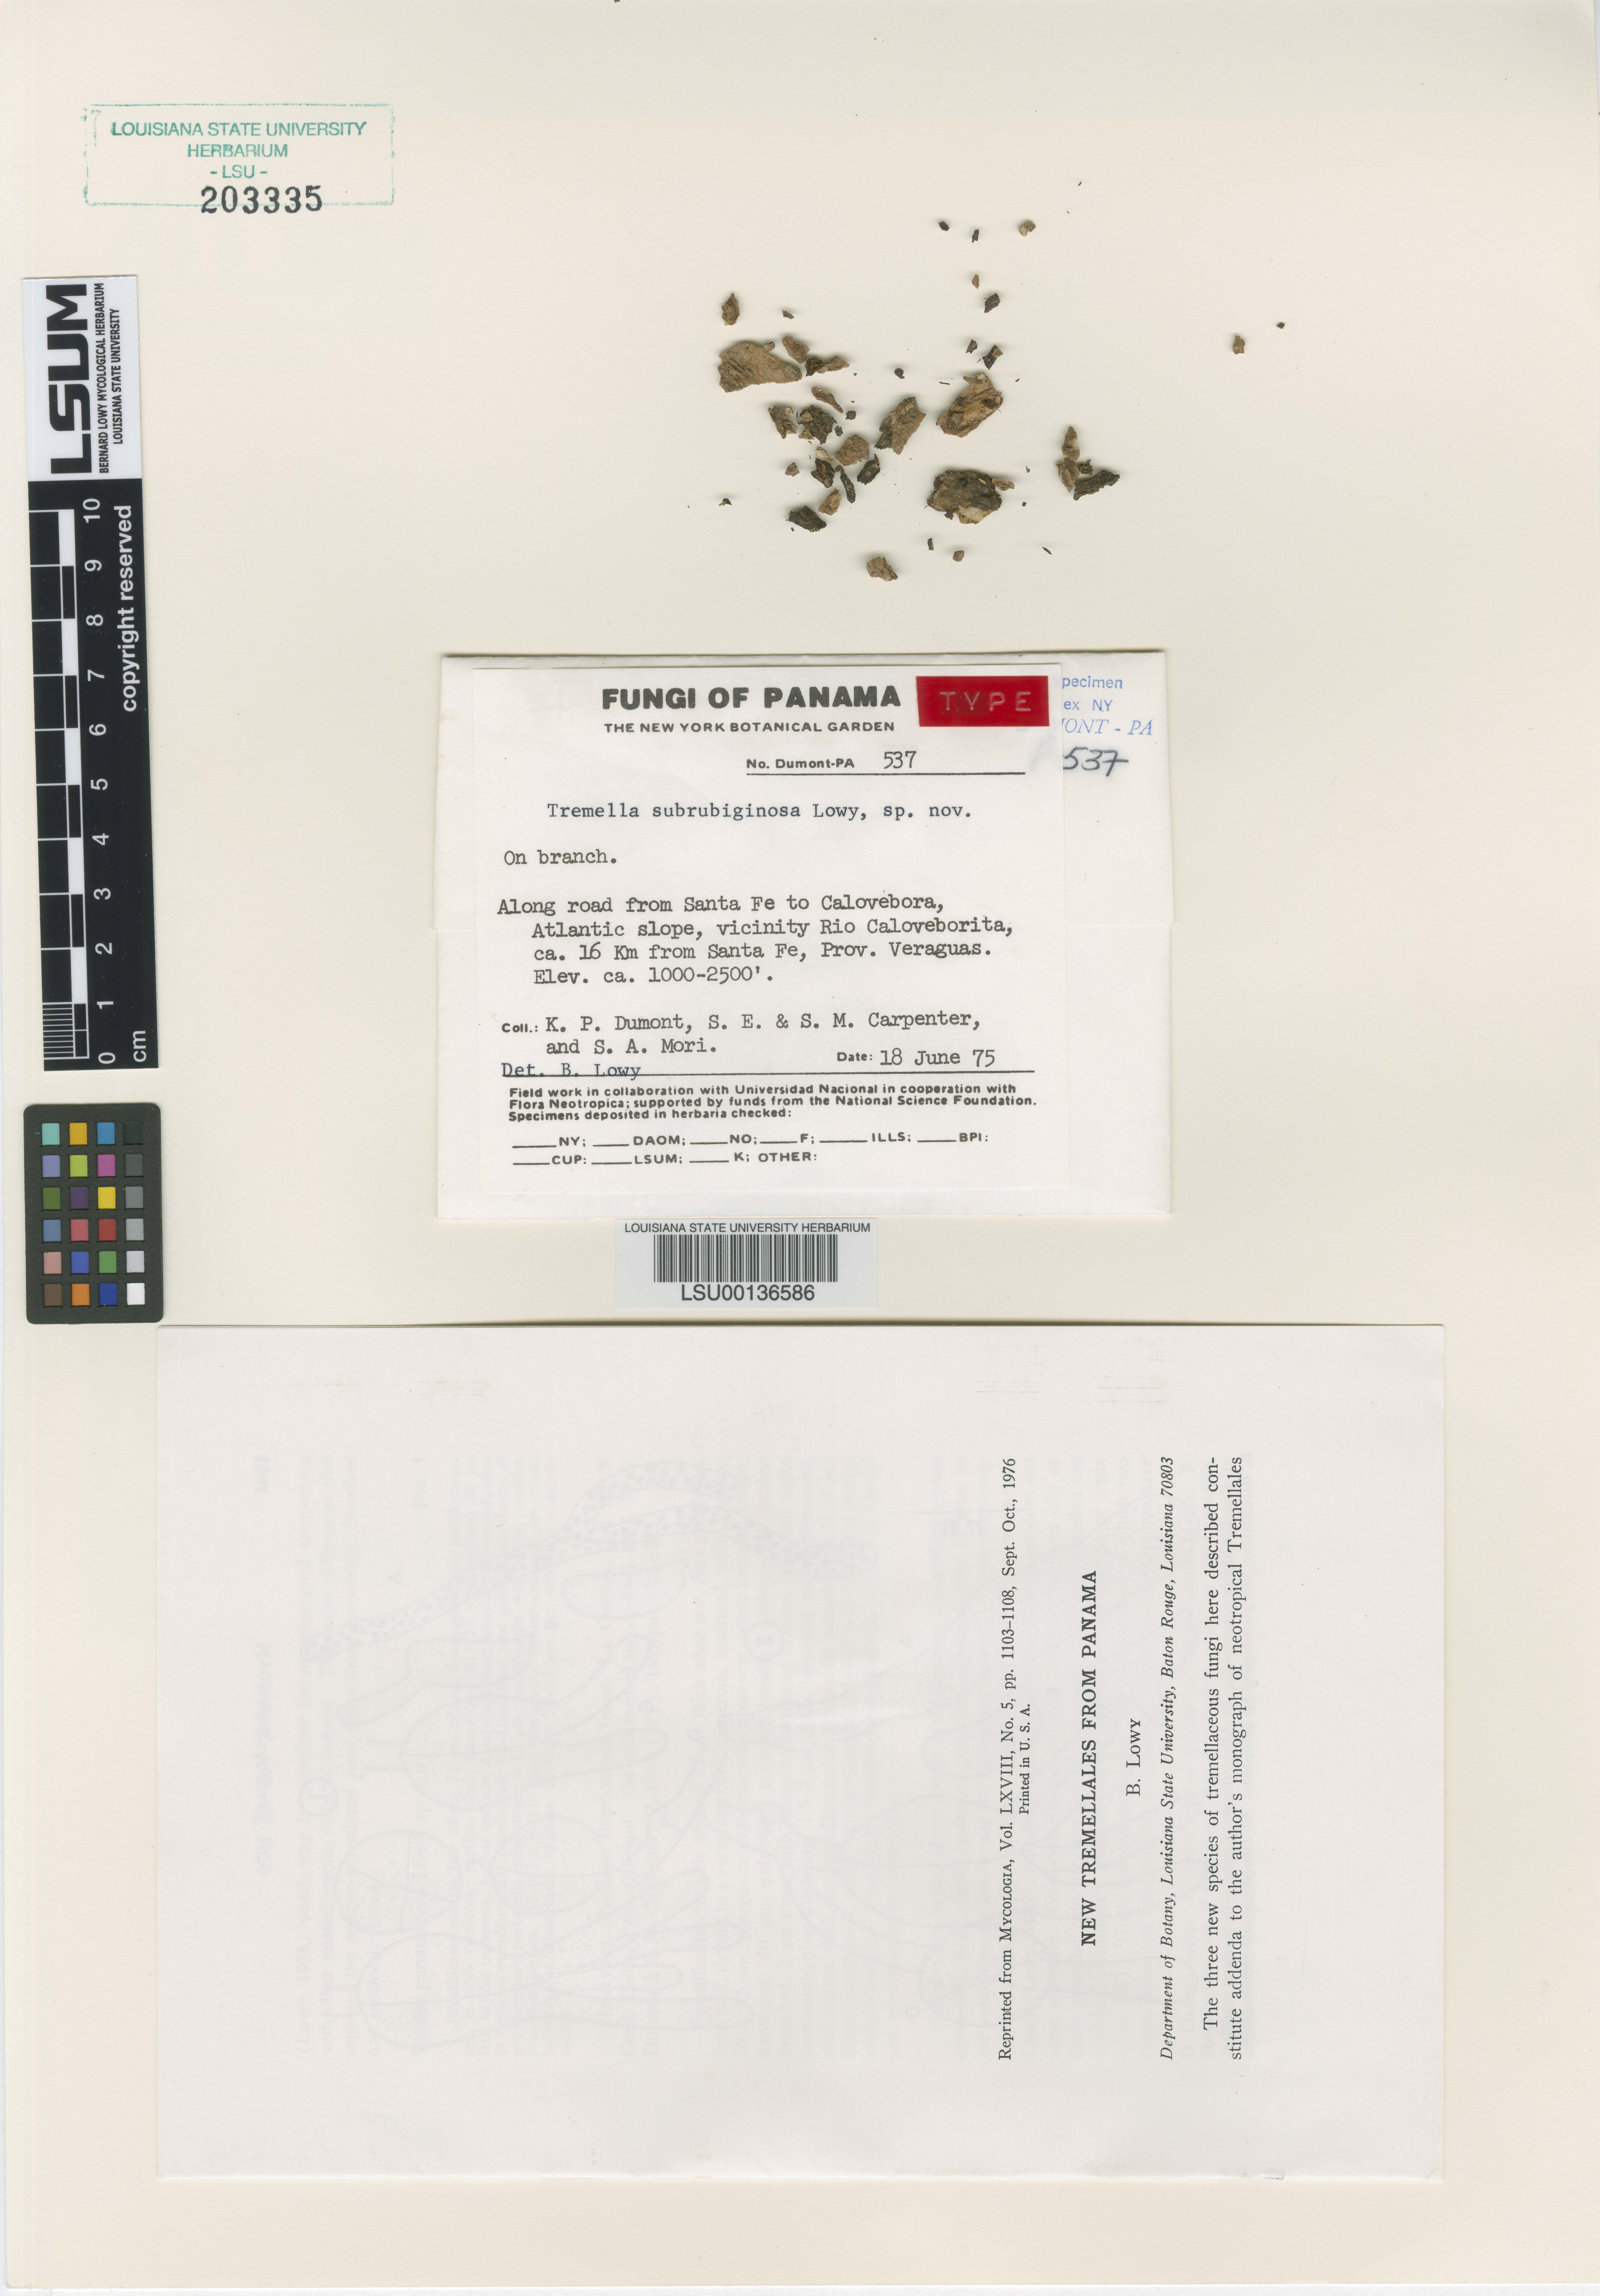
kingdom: Fungi
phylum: Basidiomycota
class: Tremellomycetes
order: Tremellales
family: Tremellaceae
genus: Tremella
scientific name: Tremella subrubiginosa
